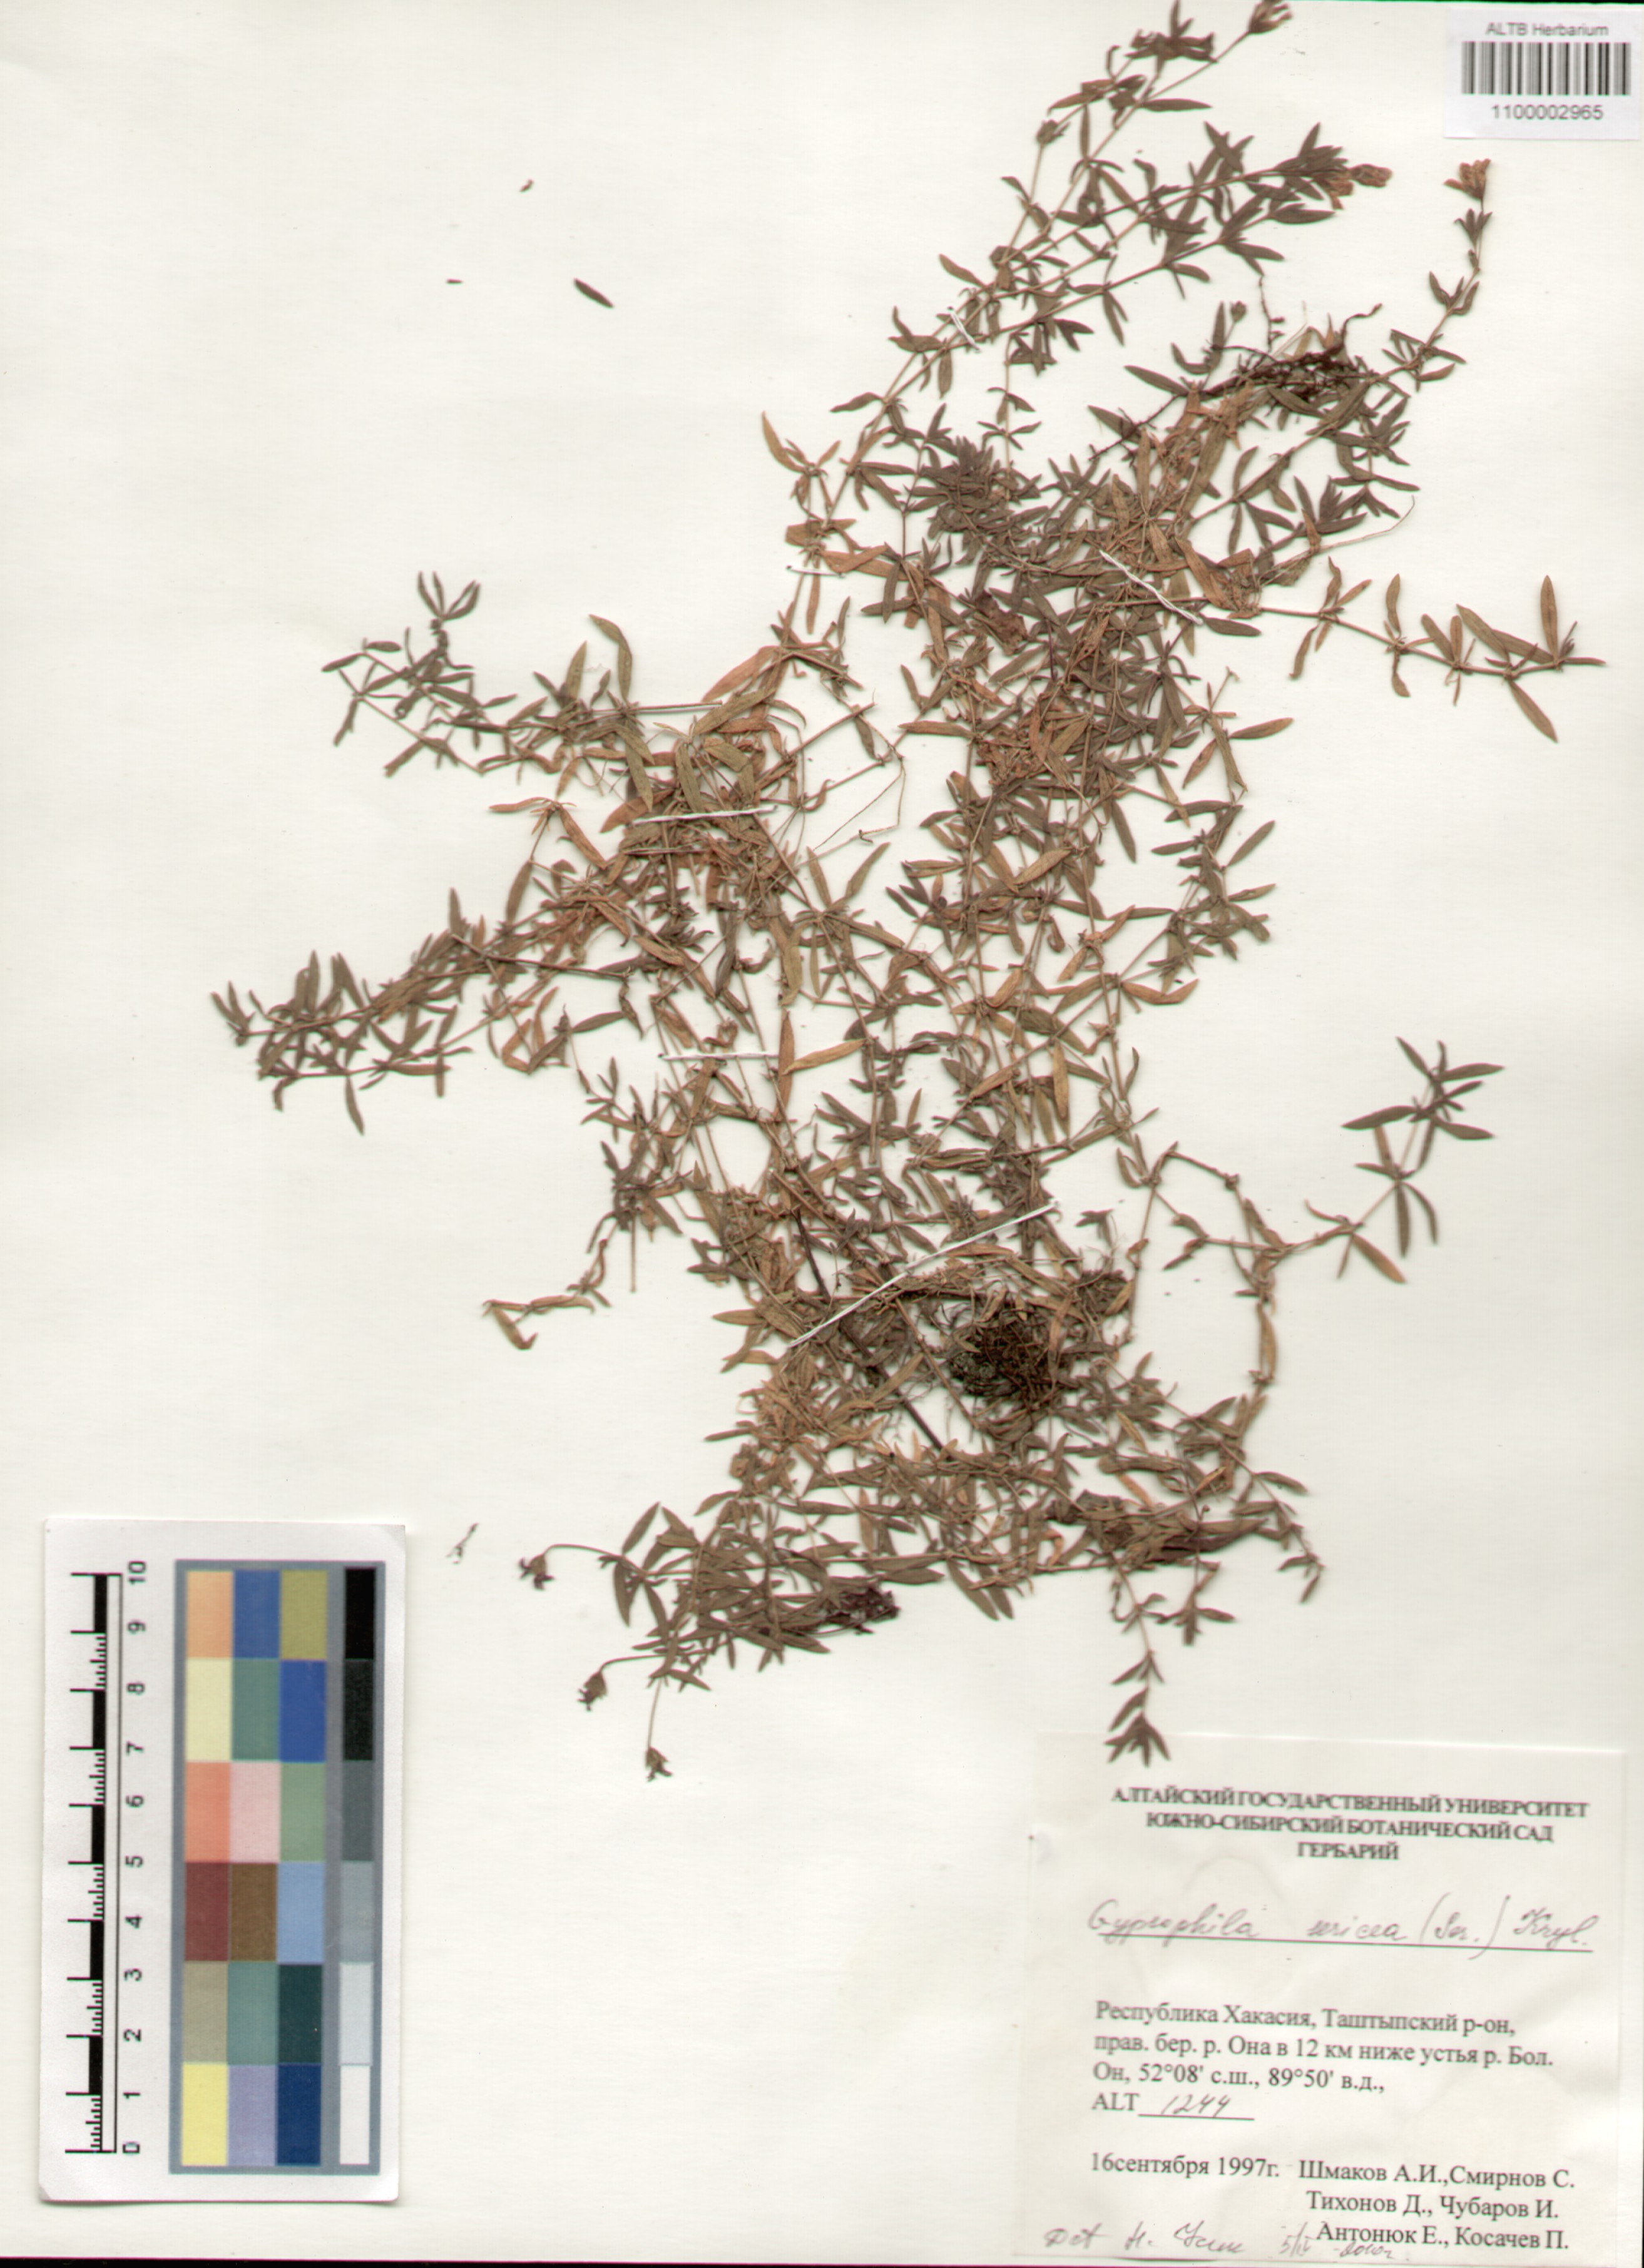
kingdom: Plantae
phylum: Tracheophyta
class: Magnoliopsida
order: Caryophyllales
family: Caryophyllaceae
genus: Heterochroa
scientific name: Heterochroa petraea
